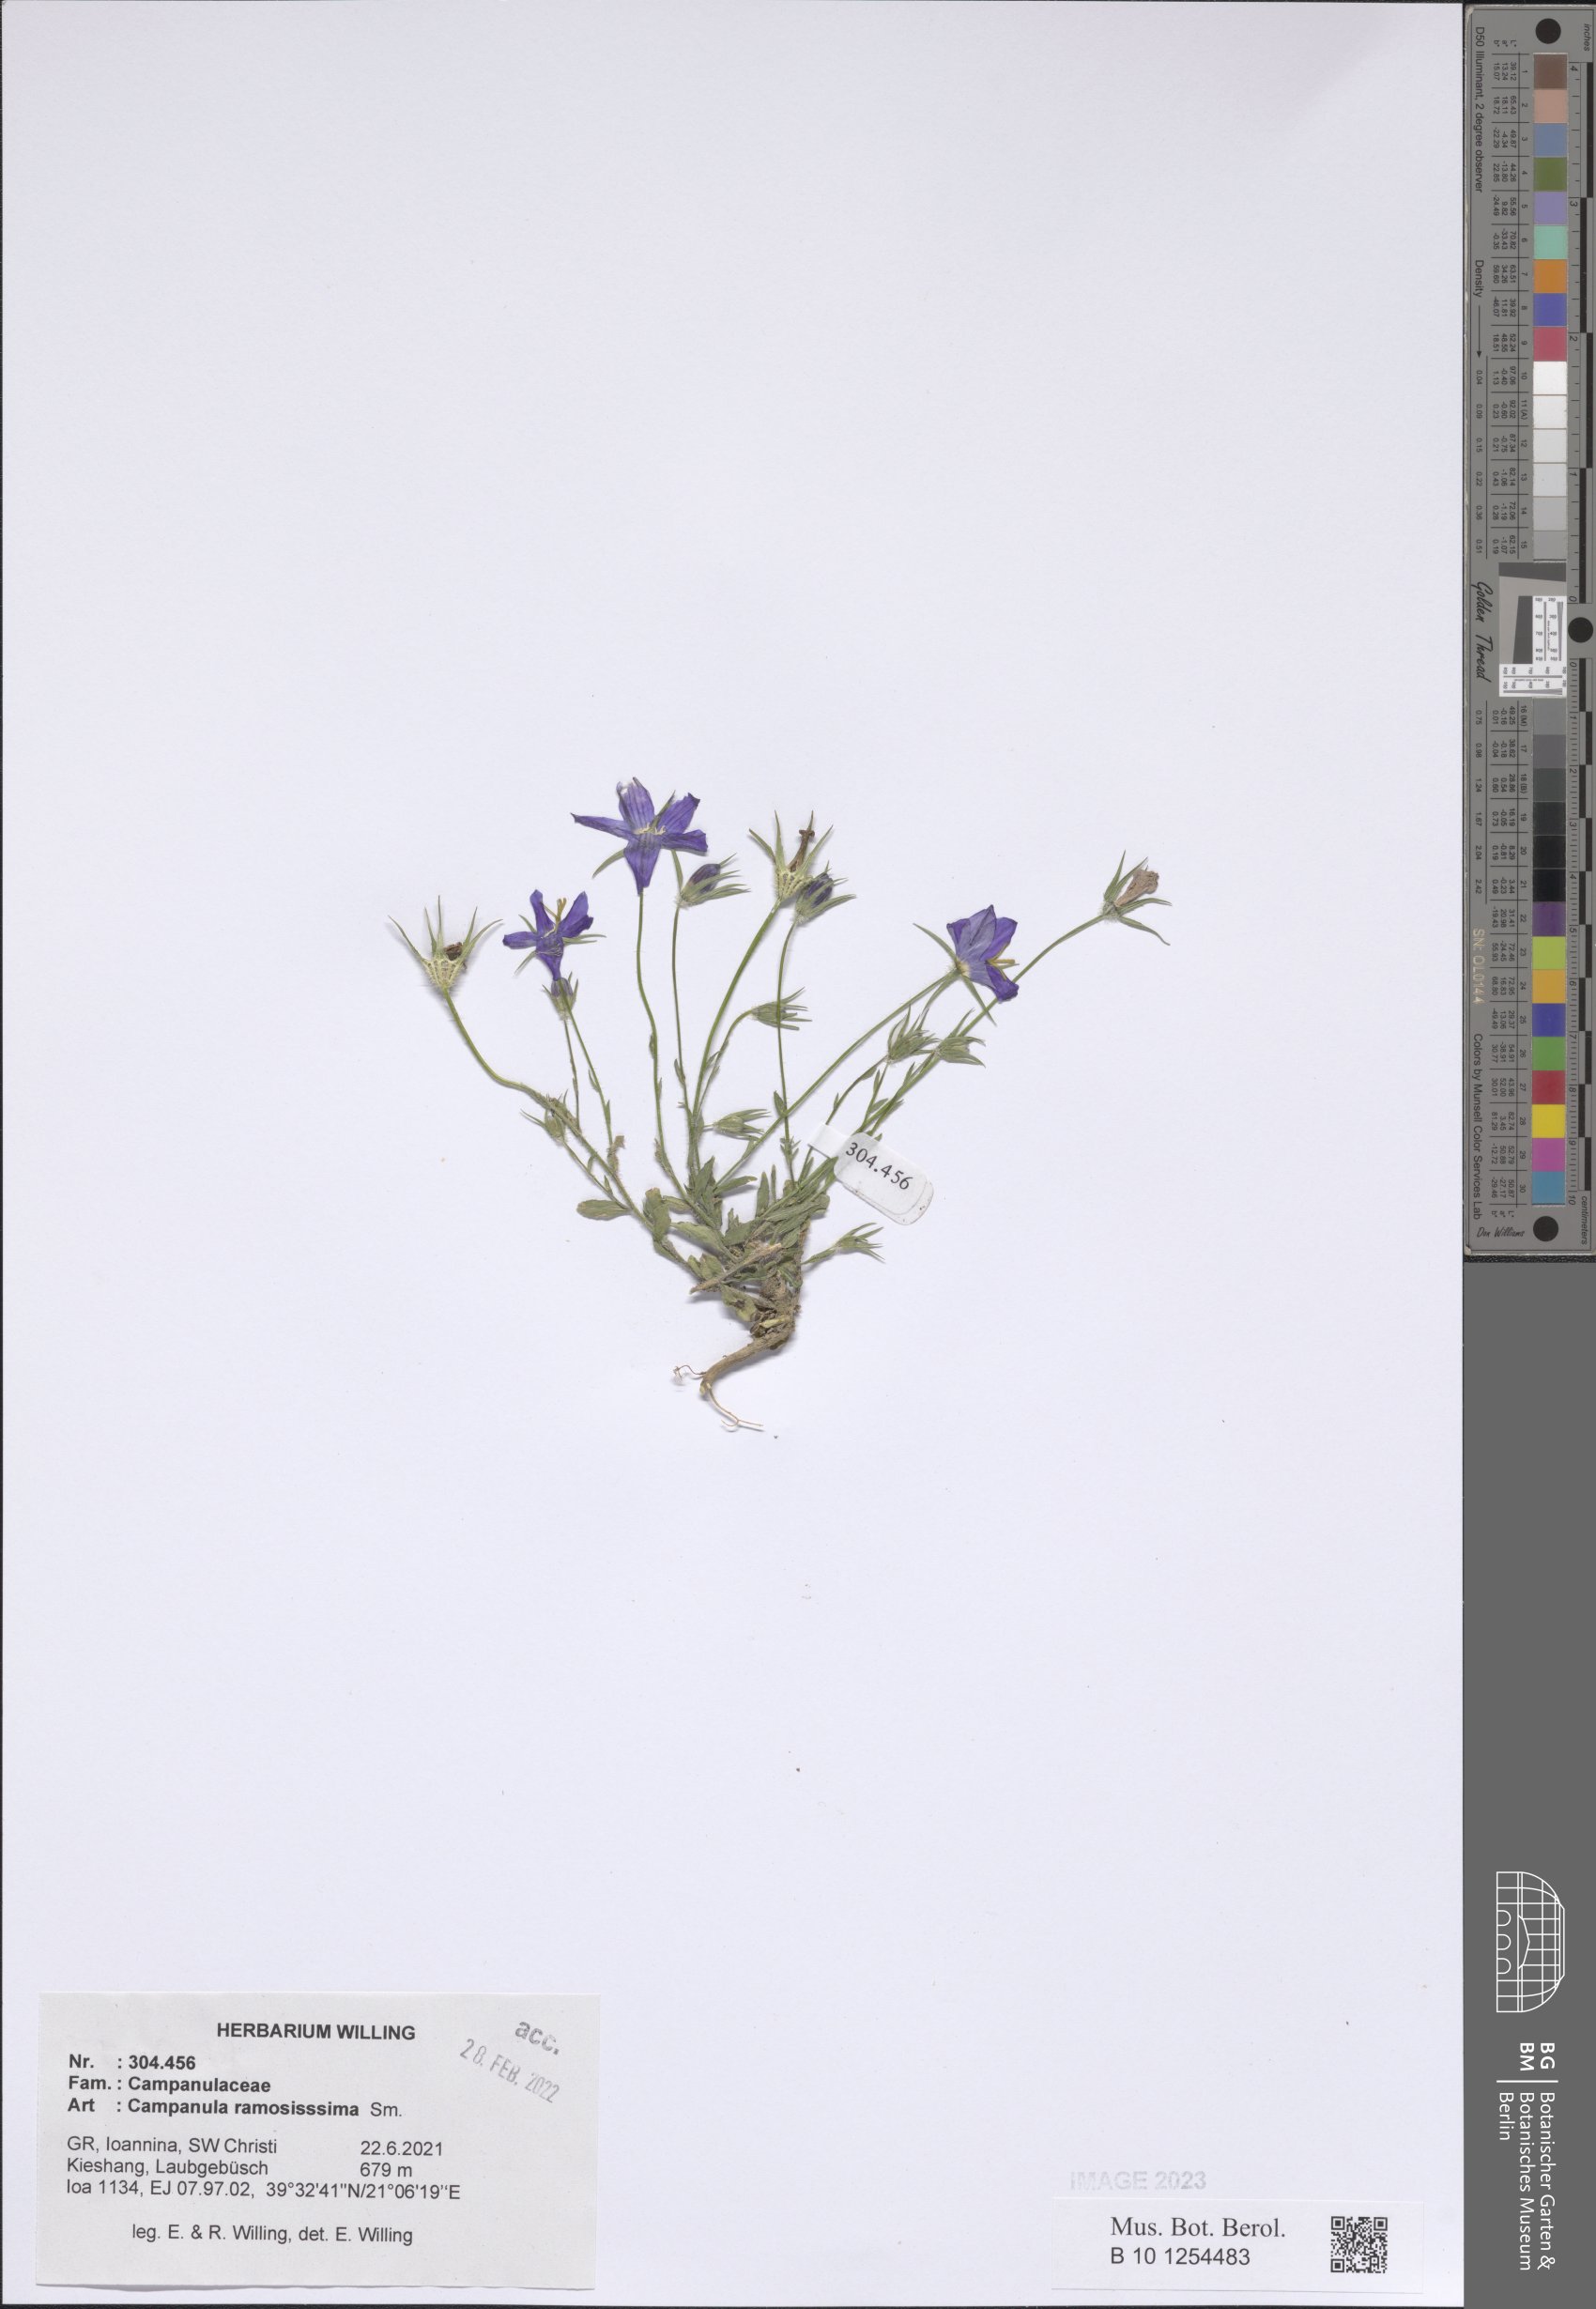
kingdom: Plantae
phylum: Tracheophyta
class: Magnoliopsida
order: Asterales
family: Campanulaceae
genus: Campanula
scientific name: Campanula ramosissima
